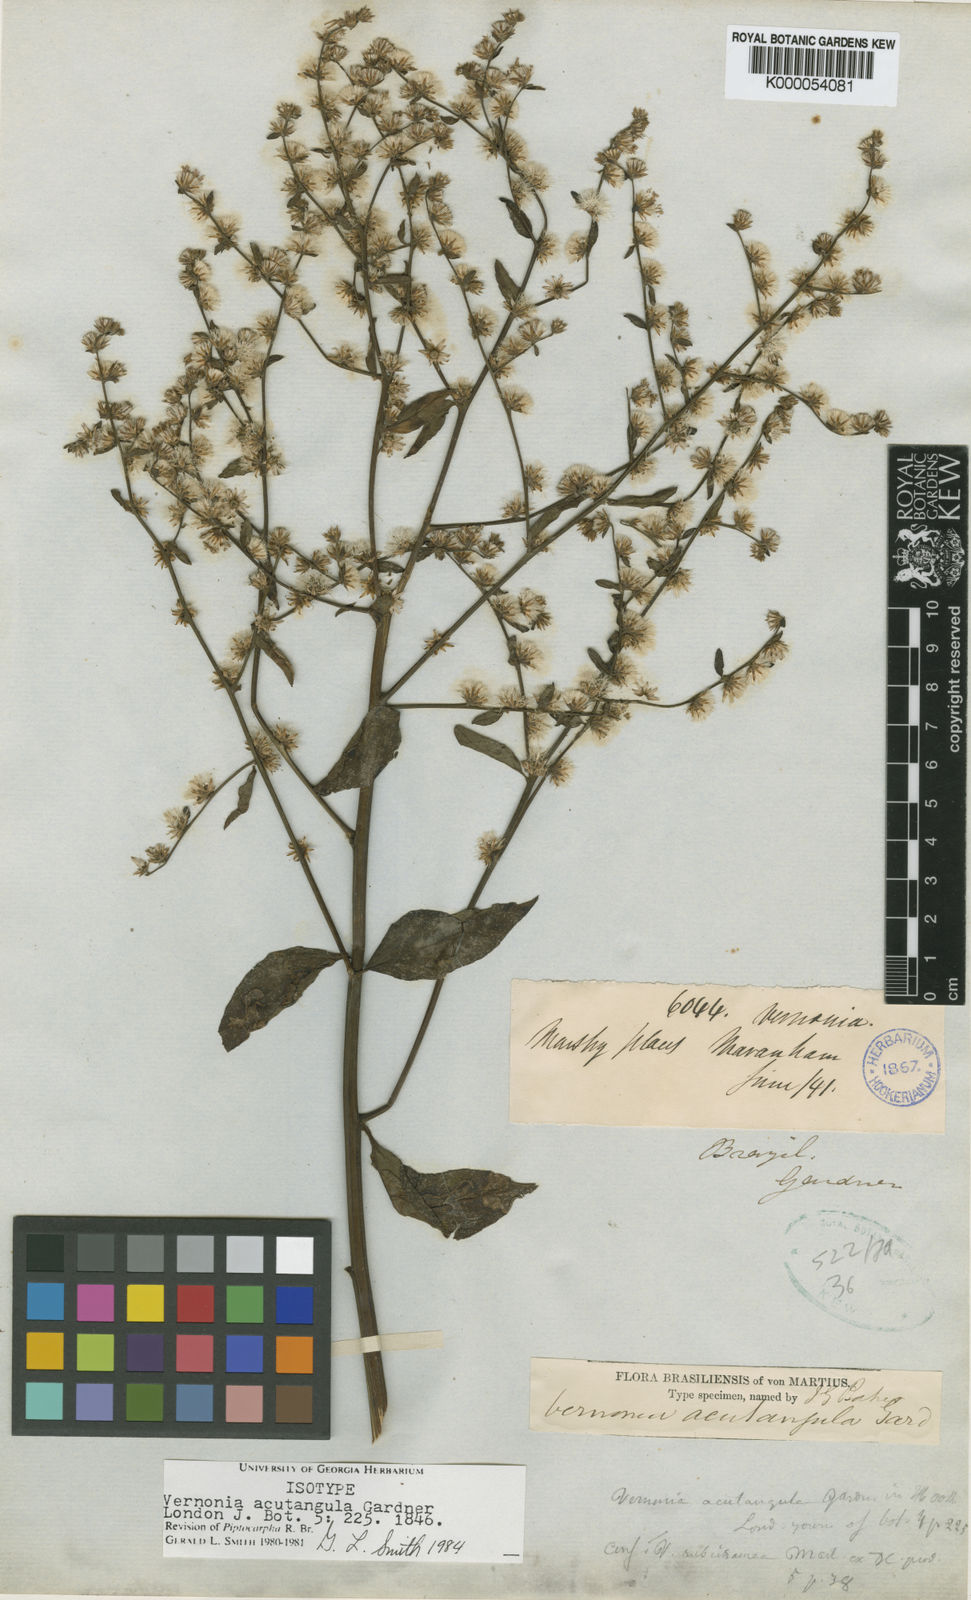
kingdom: Plantae
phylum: Tracheophyta
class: Magnoliopsida
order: Asterales
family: Asteraceae
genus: Lepidaploa
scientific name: Lepidaploa acutangula
